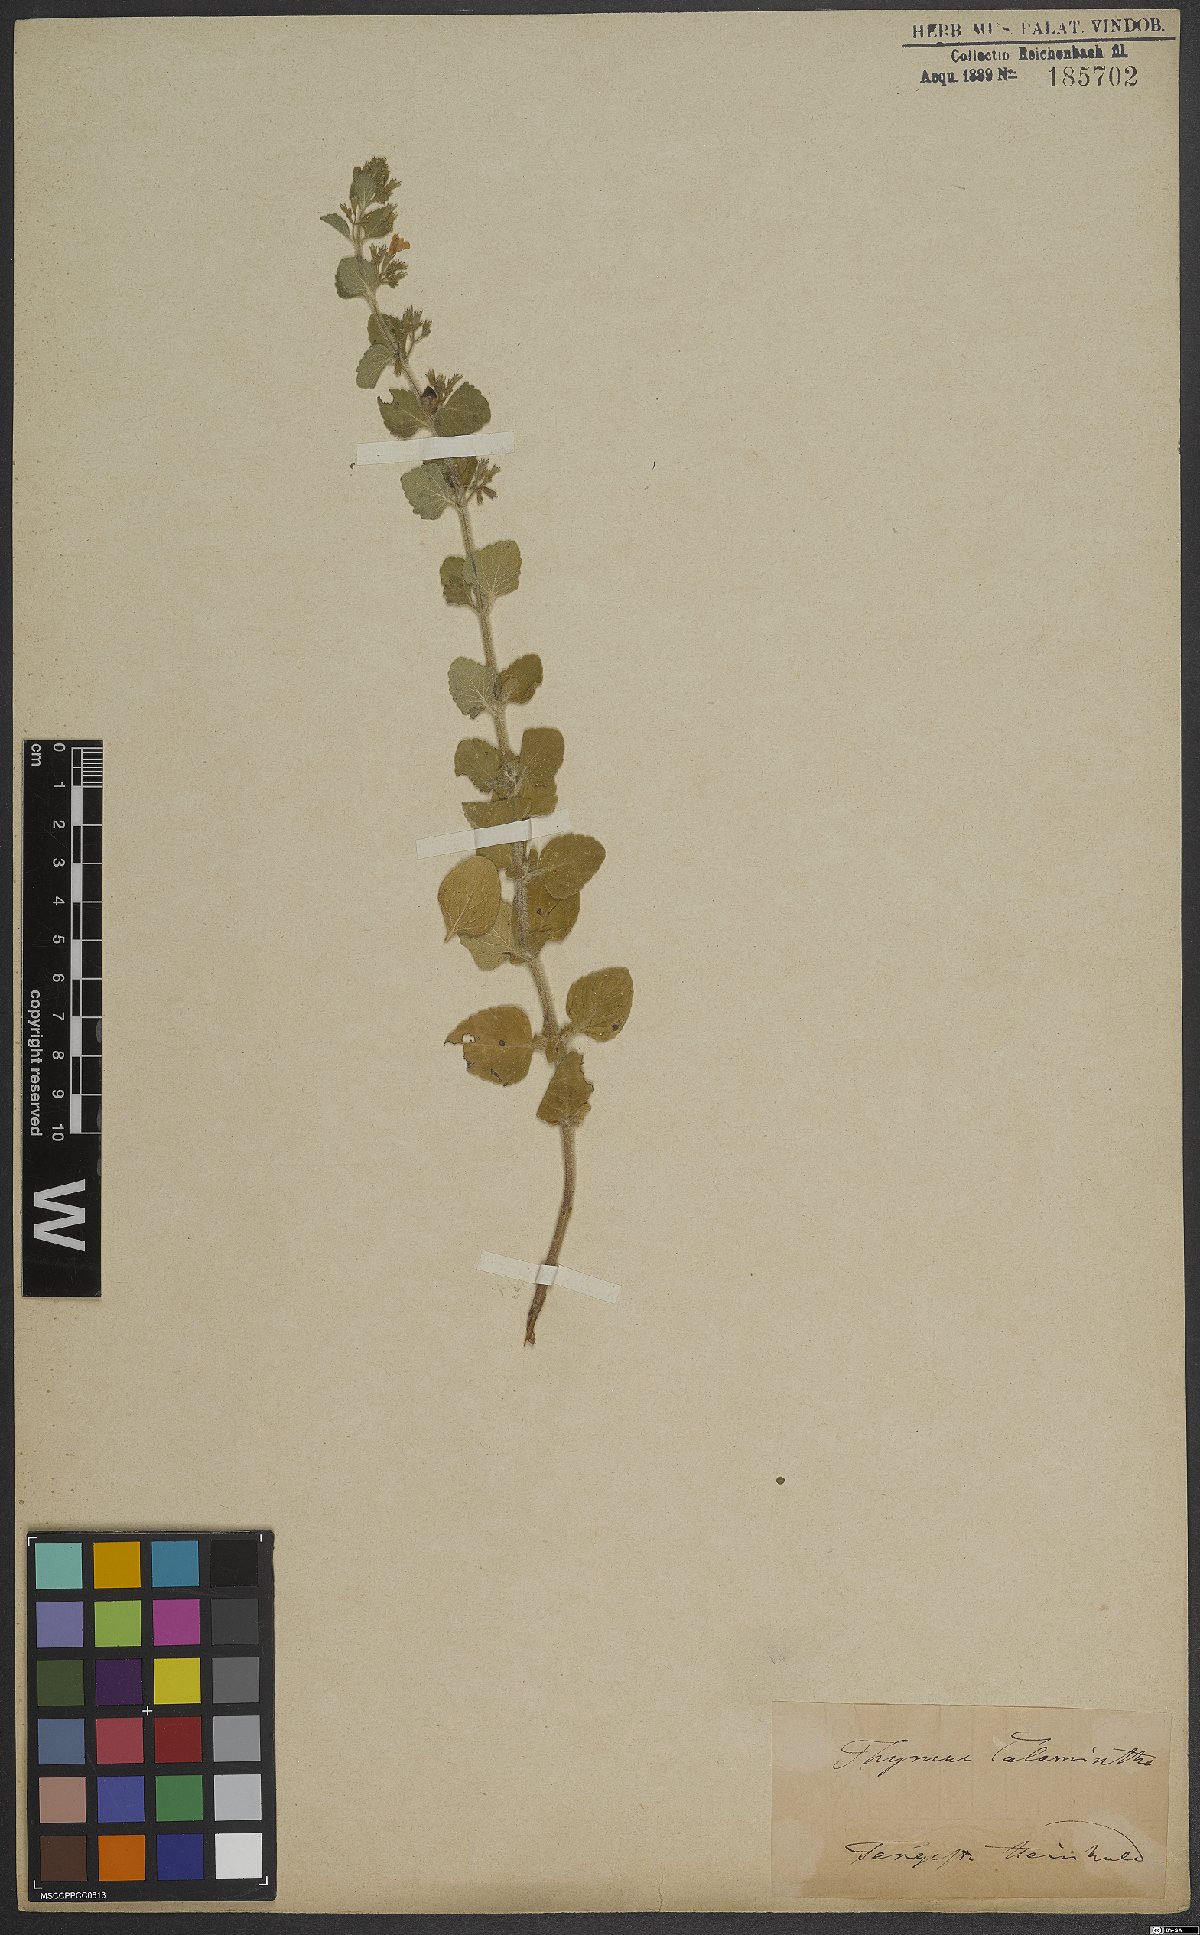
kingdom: Plantae
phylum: Tracheophyta
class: Magnoliopsida
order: Lamiales
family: Lamiaceae
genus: Clinopodium
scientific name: Clinopodium acinos
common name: Basil thyme
